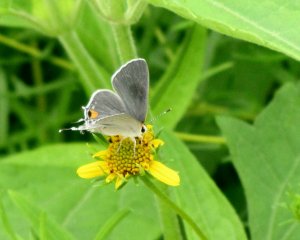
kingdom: Animalia
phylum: Arthropoda
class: Insecta
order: Lepidoptera
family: Lycaenidae
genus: Strymon
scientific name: Strymon melinus
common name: Gray Hairstreak
